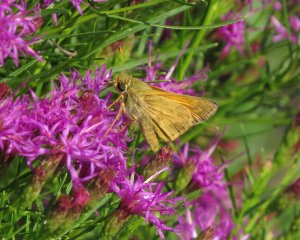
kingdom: Animalia
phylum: Arthropoda
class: Insecta
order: Lepidoptera
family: Hesperiidae
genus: Atalopedes
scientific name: Atalopedes campestris
